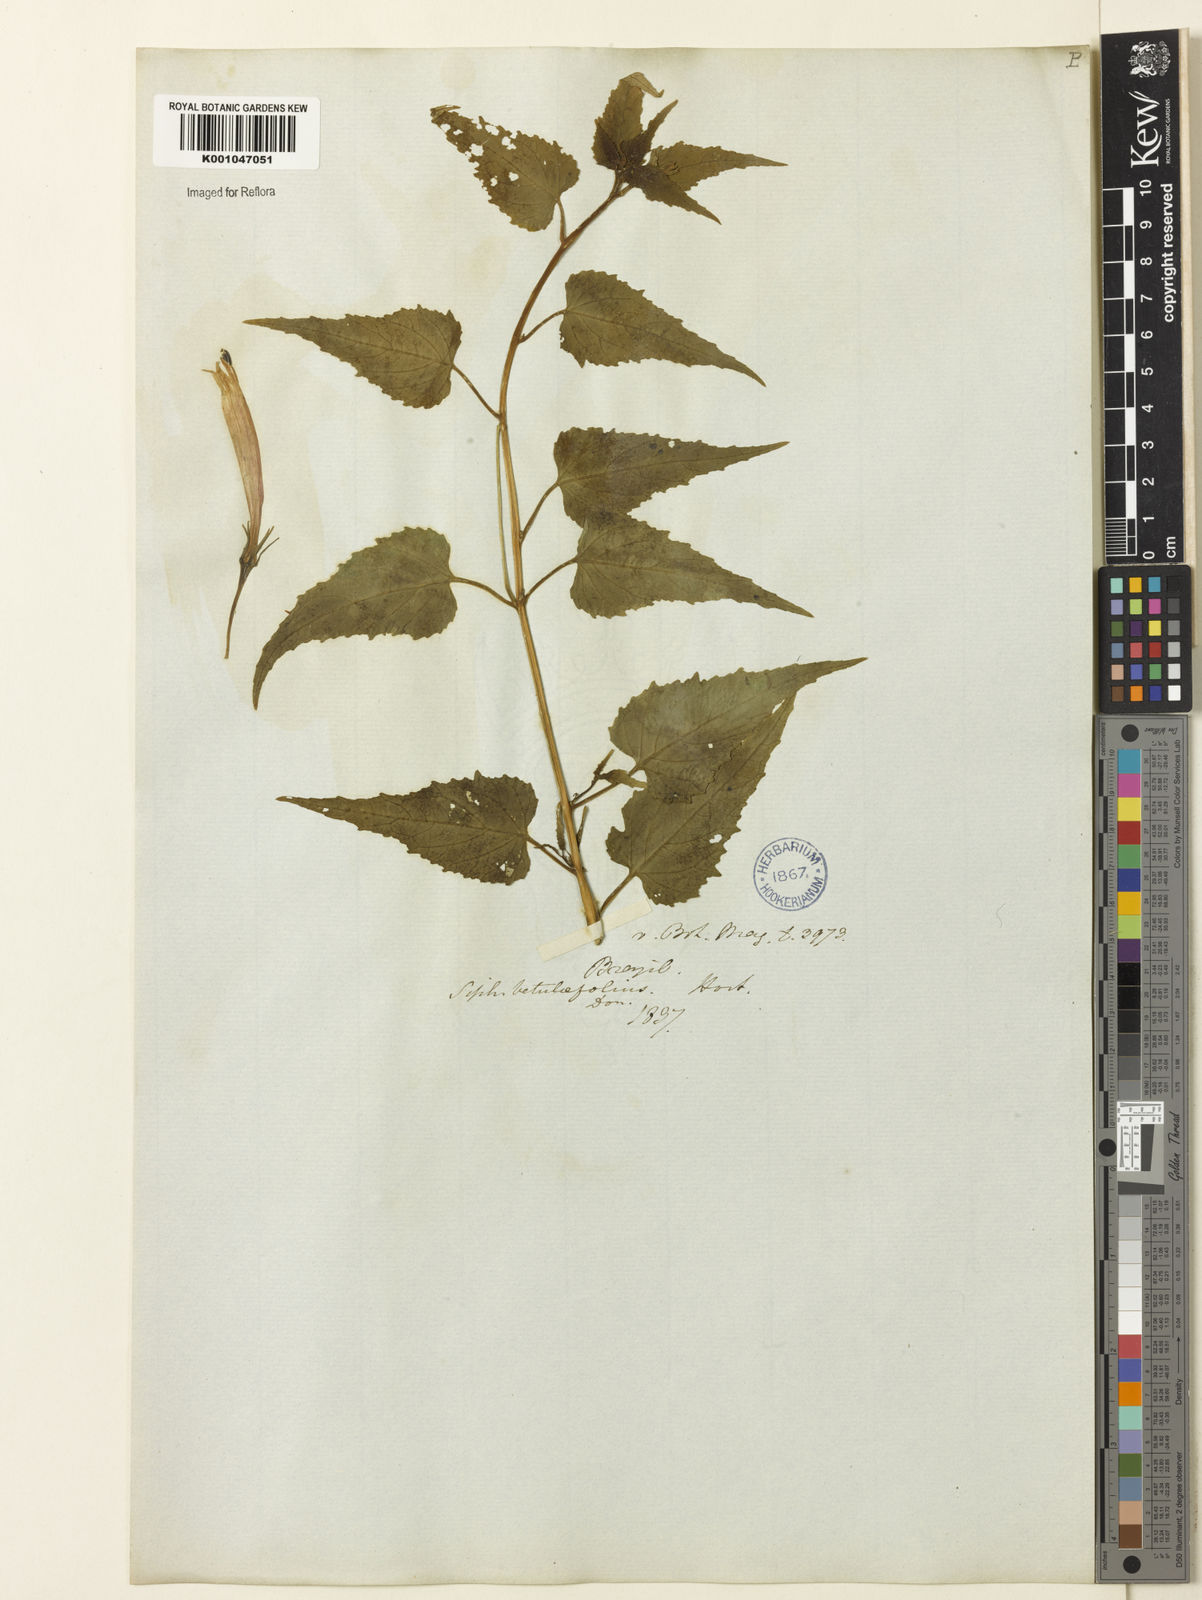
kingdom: Plantae
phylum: Tracheophyta
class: Magnoliopsida
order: Asterales
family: Campanulaceae
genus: Siphocampylus
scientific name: Siphocampylus betulifolius
